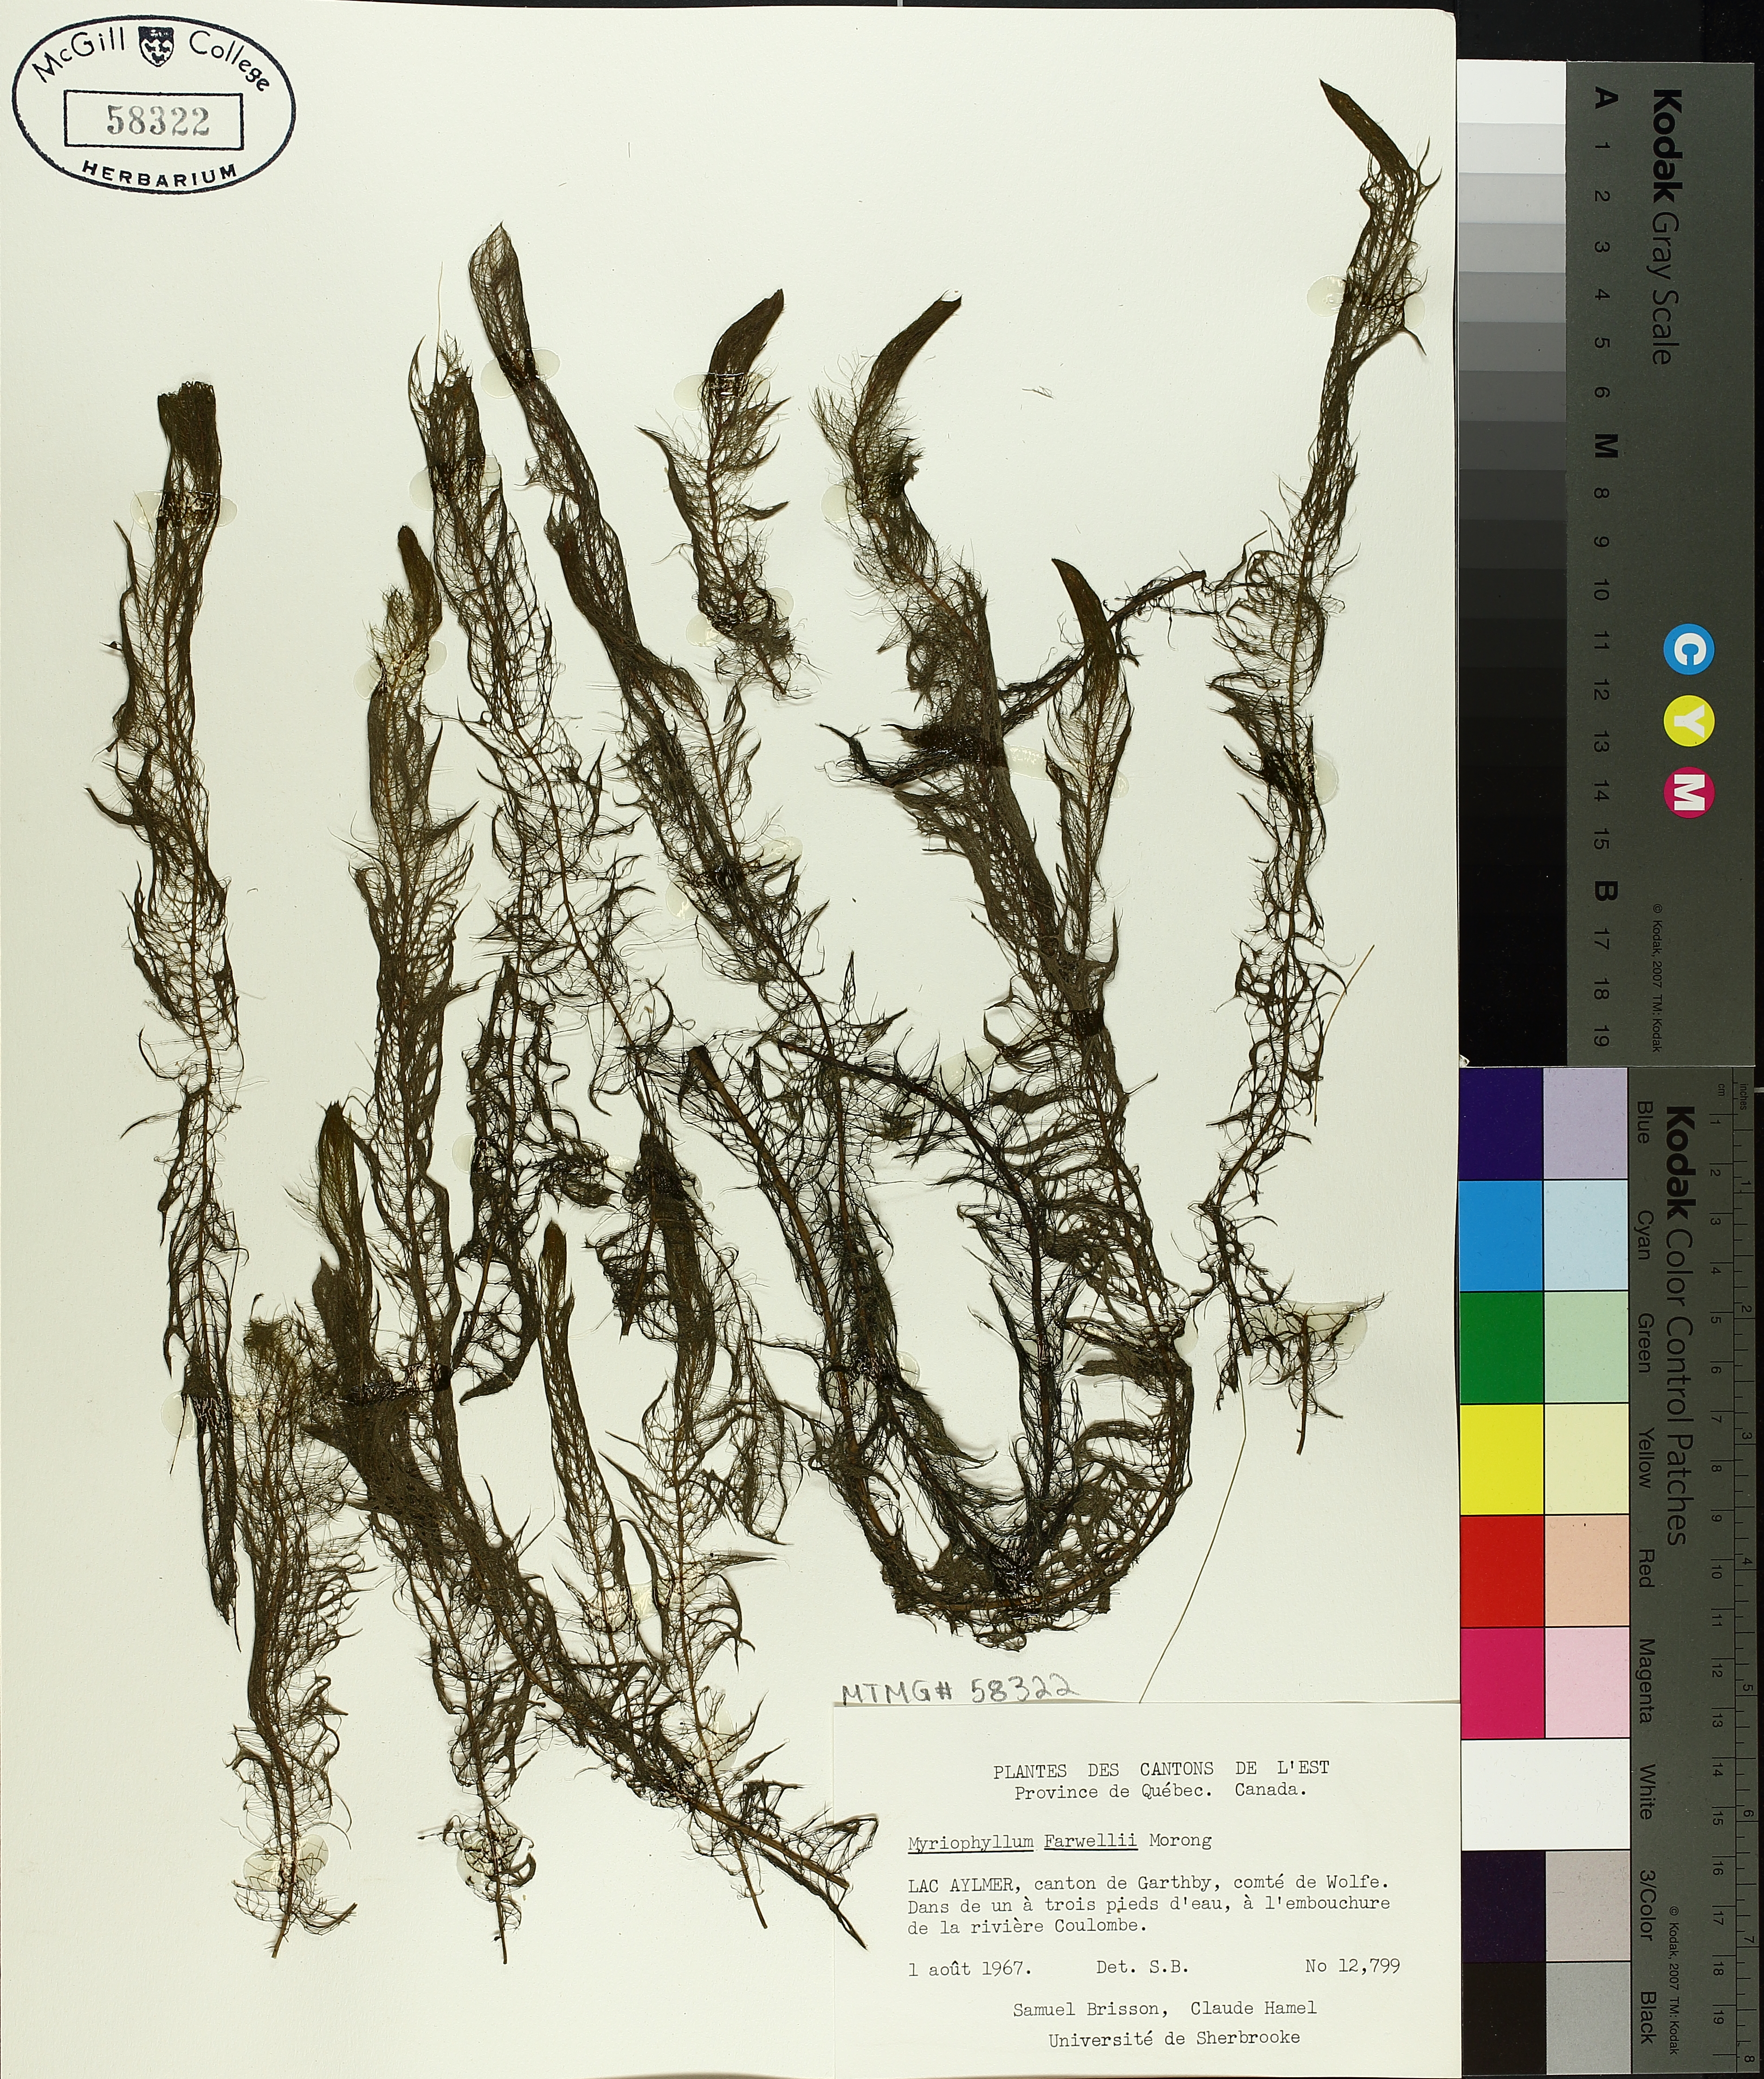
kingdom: Plantae
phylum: Tracheophyta
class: Magnoliopsida
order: Saxifragales
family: Haloragaceae
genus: Myriophyllum
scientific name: Myriophyllum farwellii
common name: Farwell's water-milfoil
